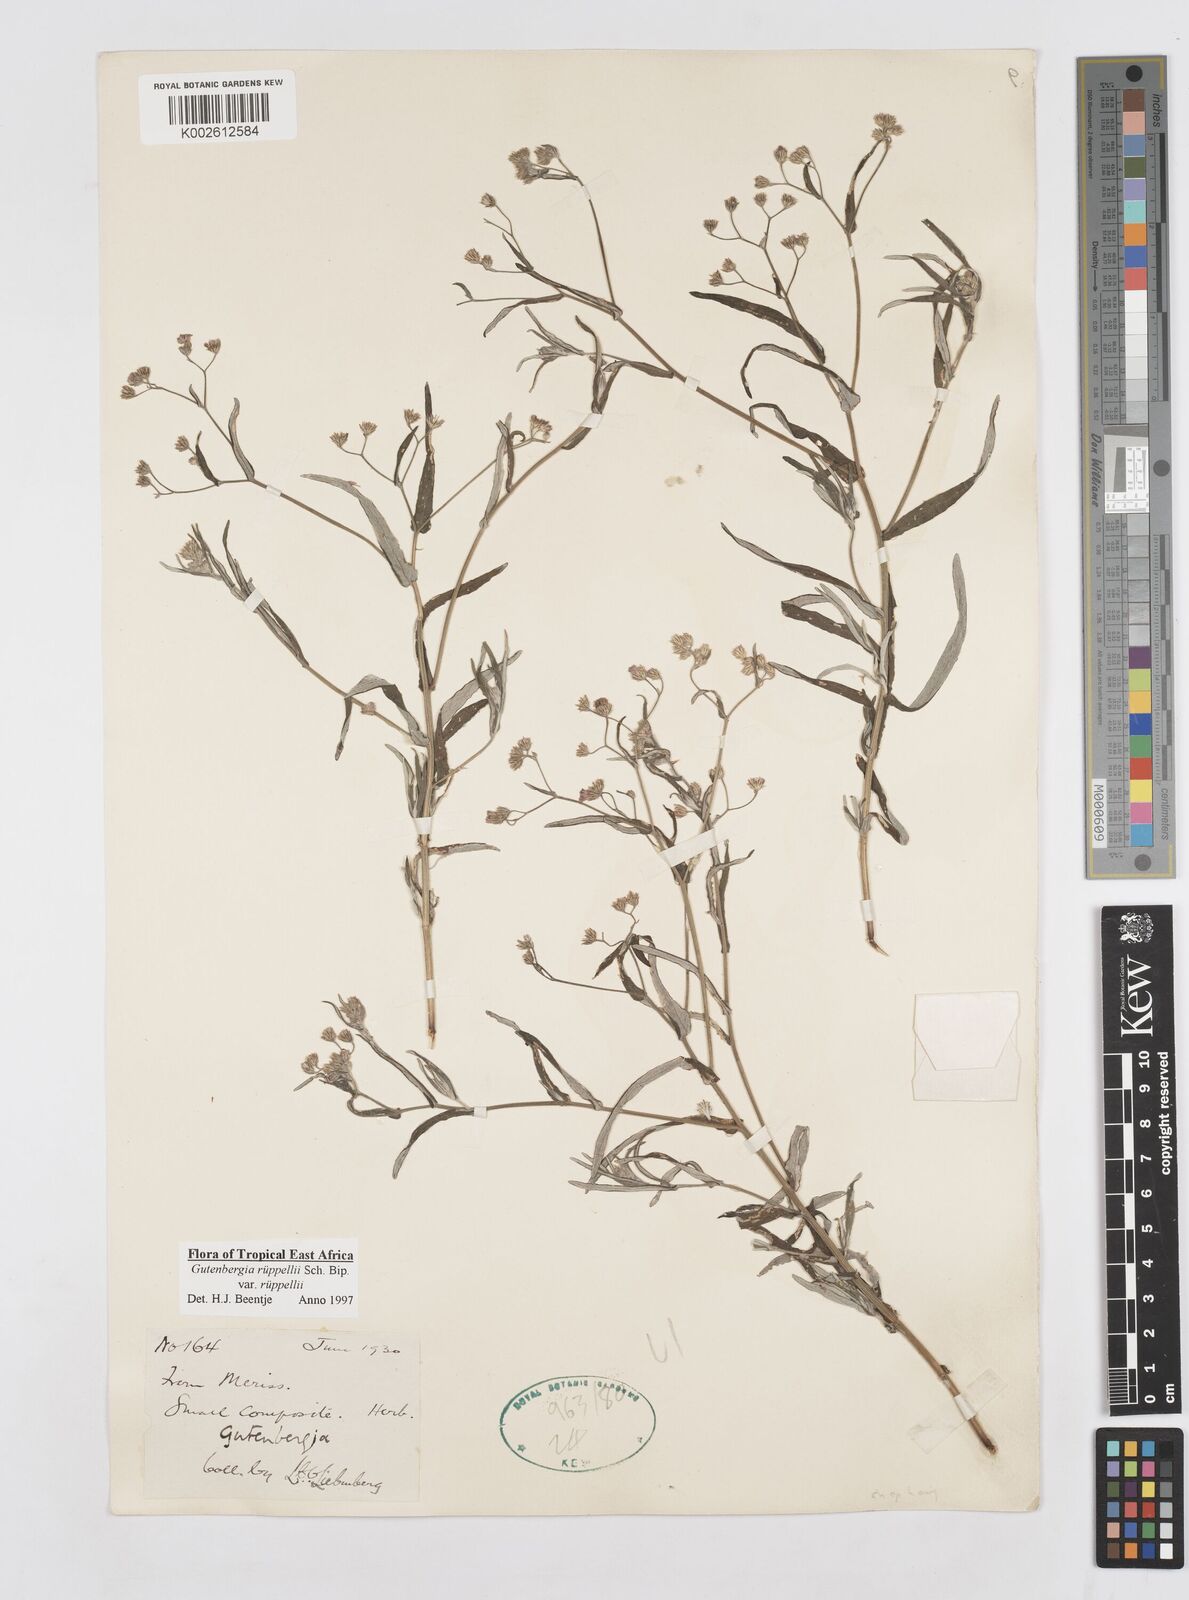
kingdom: Plantae
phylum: Tracheophyta
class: Magnoliopsida
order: Asterales
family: Asteraceae
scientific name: Asteraceae
